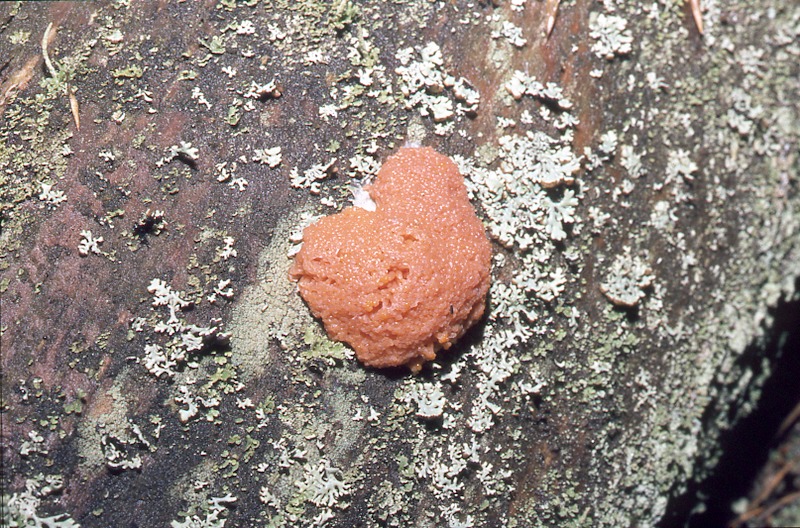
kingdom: Plantae
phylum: Tracheophyta
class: Pinopsida
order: Pinales
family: Pinaceae
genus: Pinus
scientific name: Pinus sylvestris
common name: Scots pine
